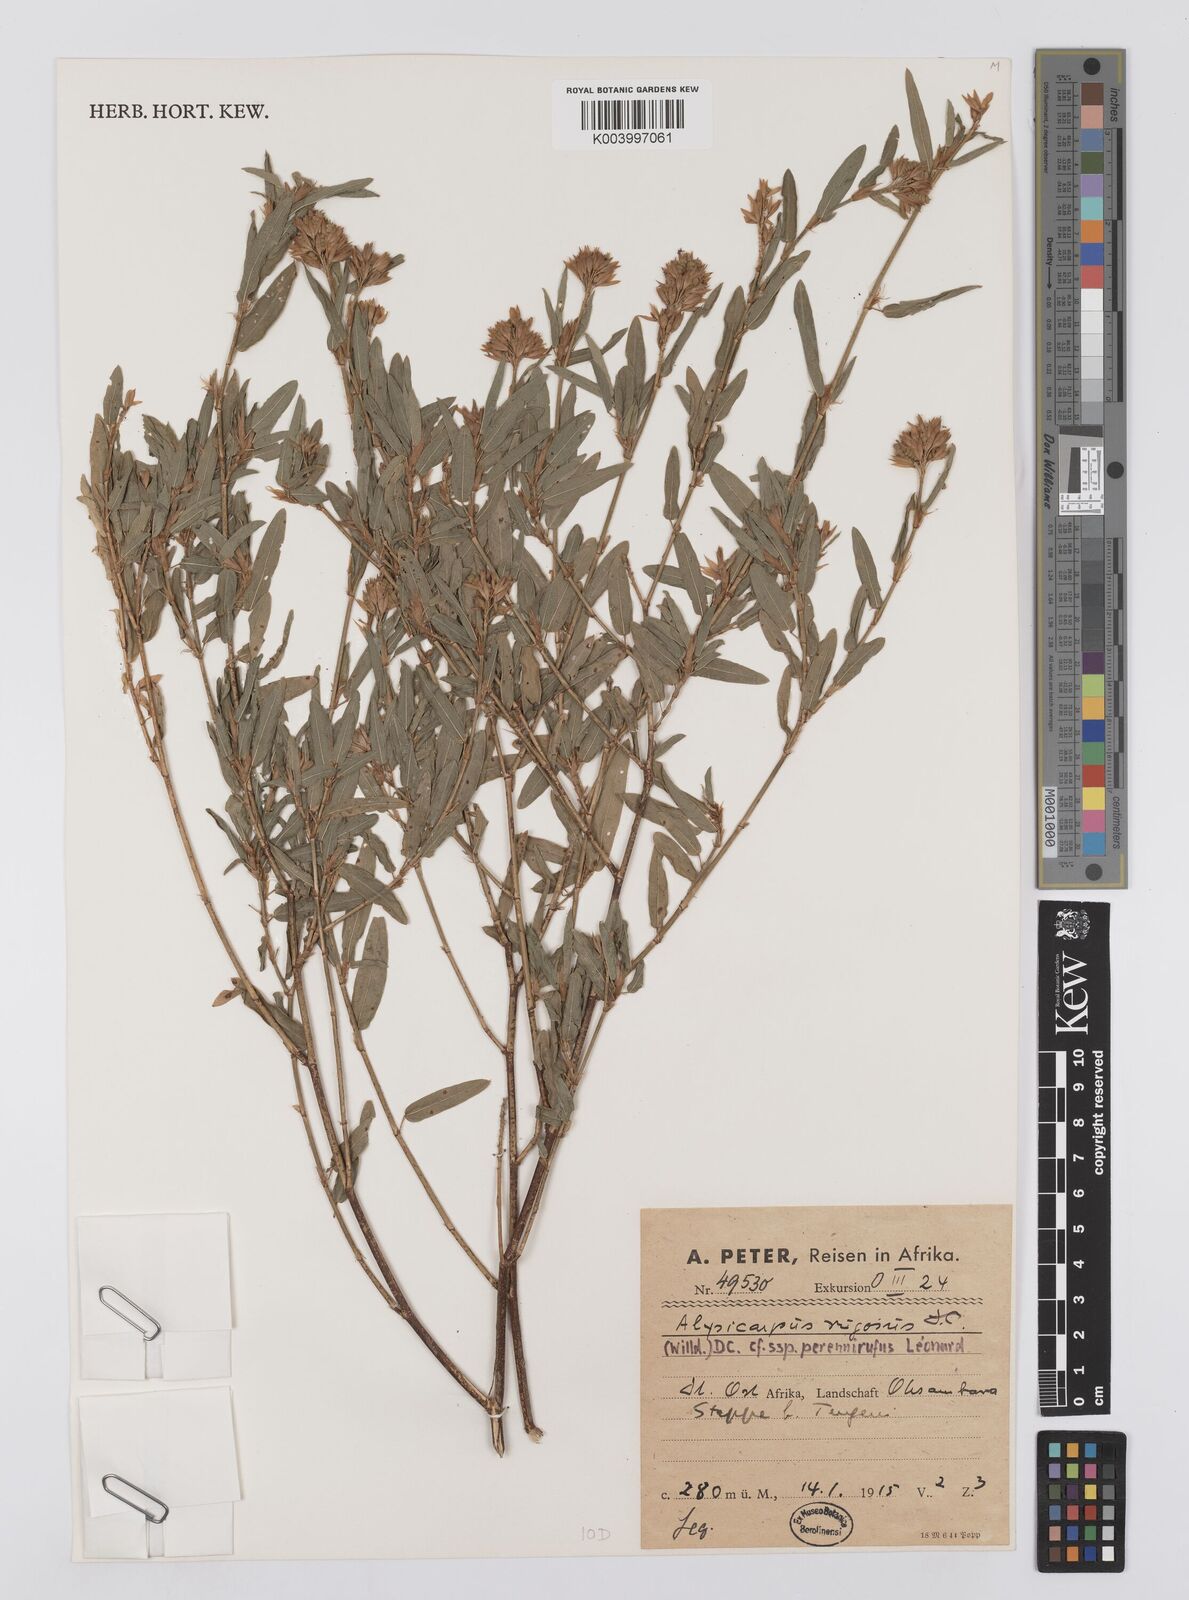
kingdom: Plantae
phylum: Tracheophyta
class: Magnoliopsida
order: Fabales
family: Fabaceae
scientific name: Fabaceae
